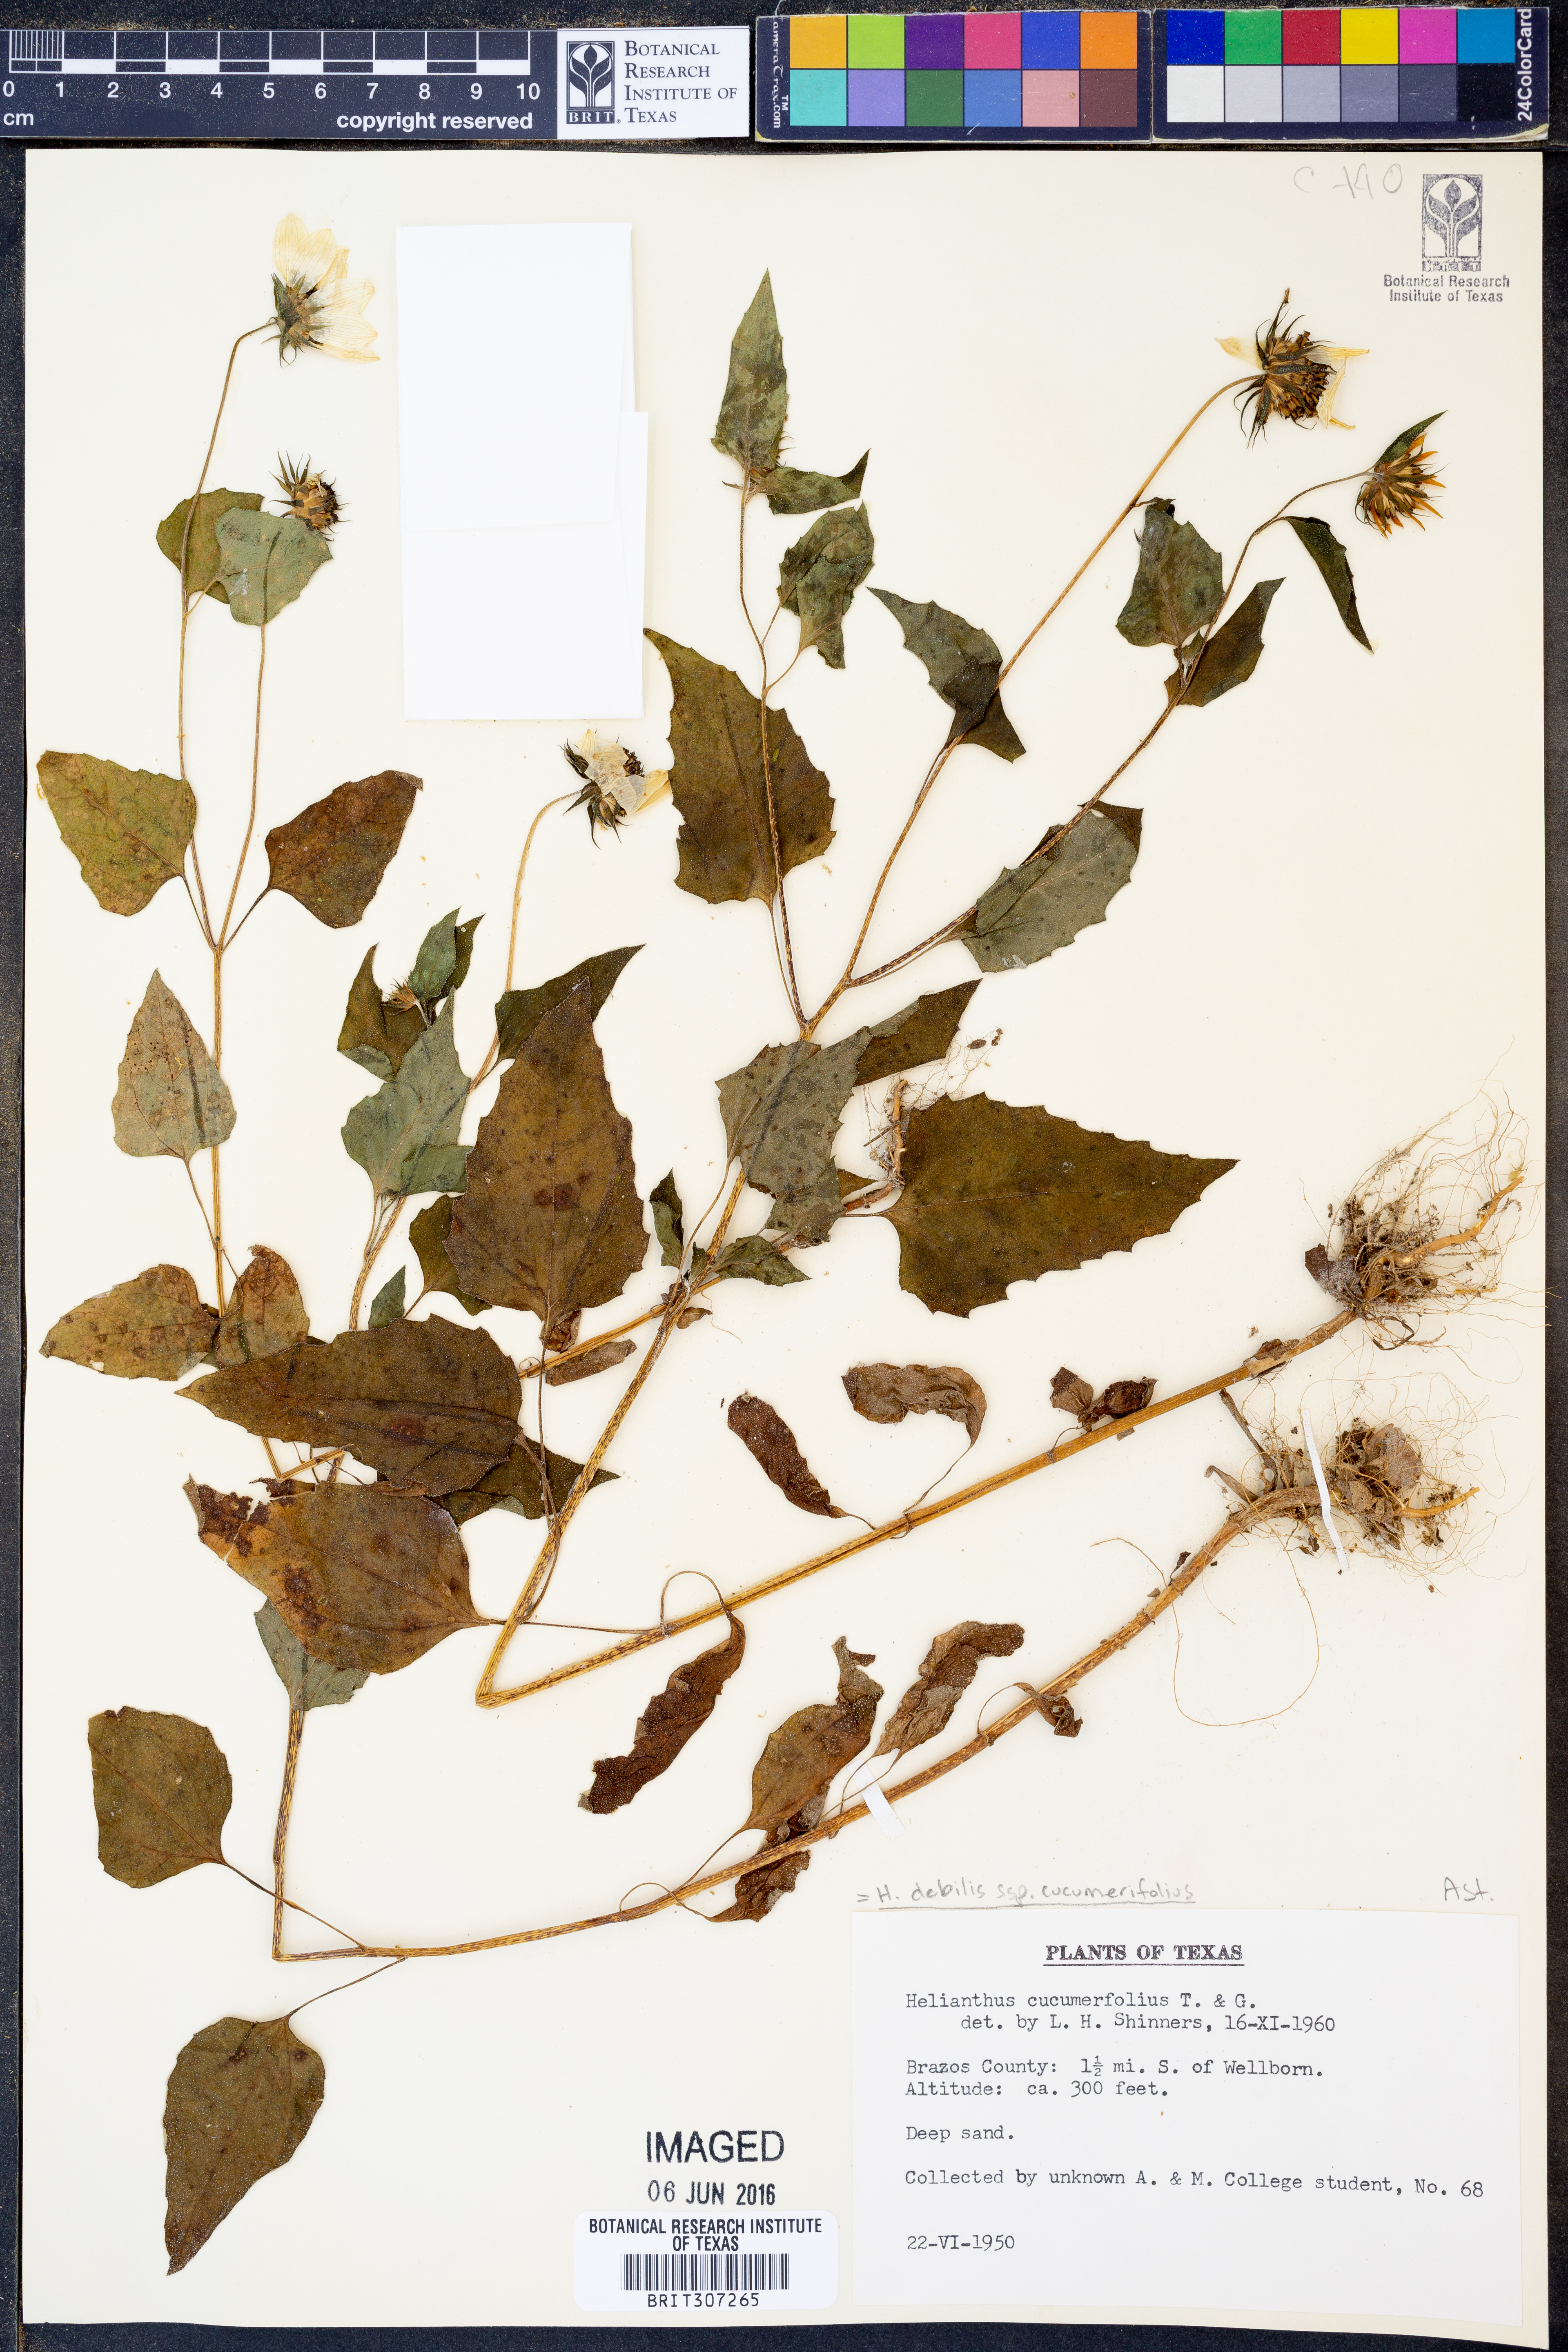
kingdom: Plantae
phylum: Tracheophyta
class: Magnoliopsida
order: Asterales
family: Asteraceae
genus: Helianthus
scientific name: Helianthus debilis
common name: Weak sunflower
